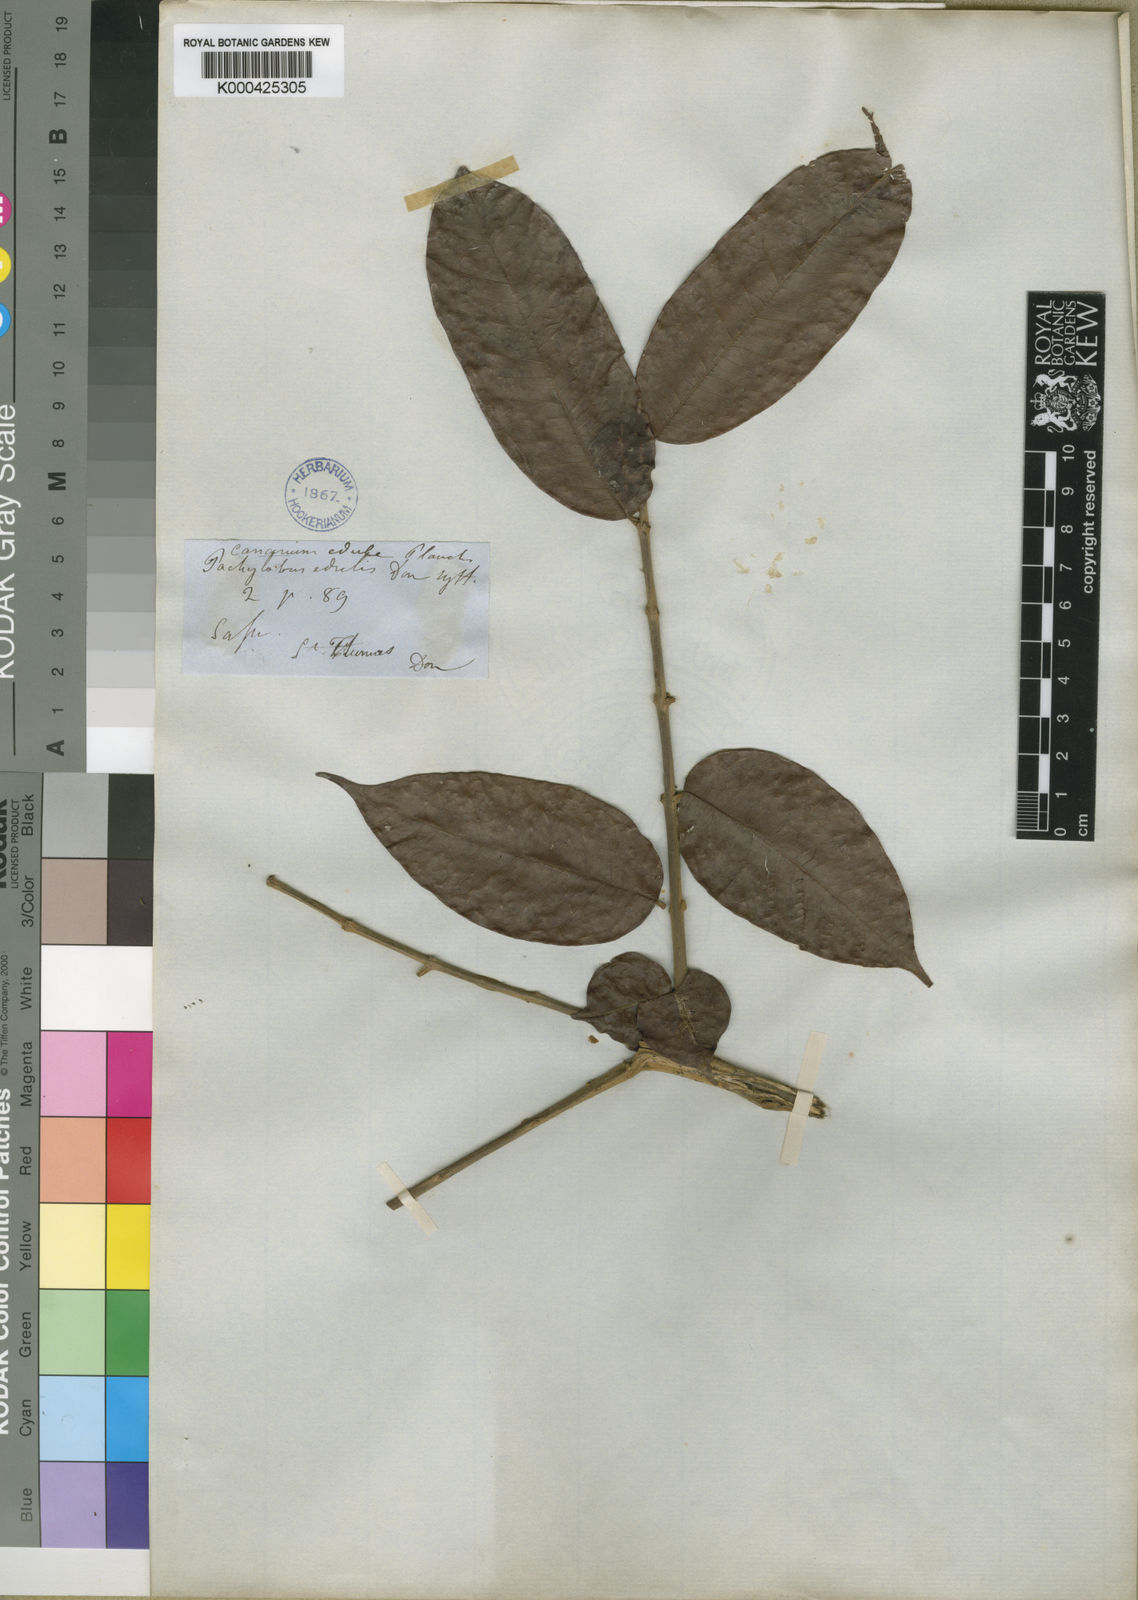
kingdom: Plantae
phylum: Tracheophyta
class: Magnoliopsida
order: Sapindales
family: Burseraceae
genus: Pachylobus
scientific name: Pachylobus edulis
